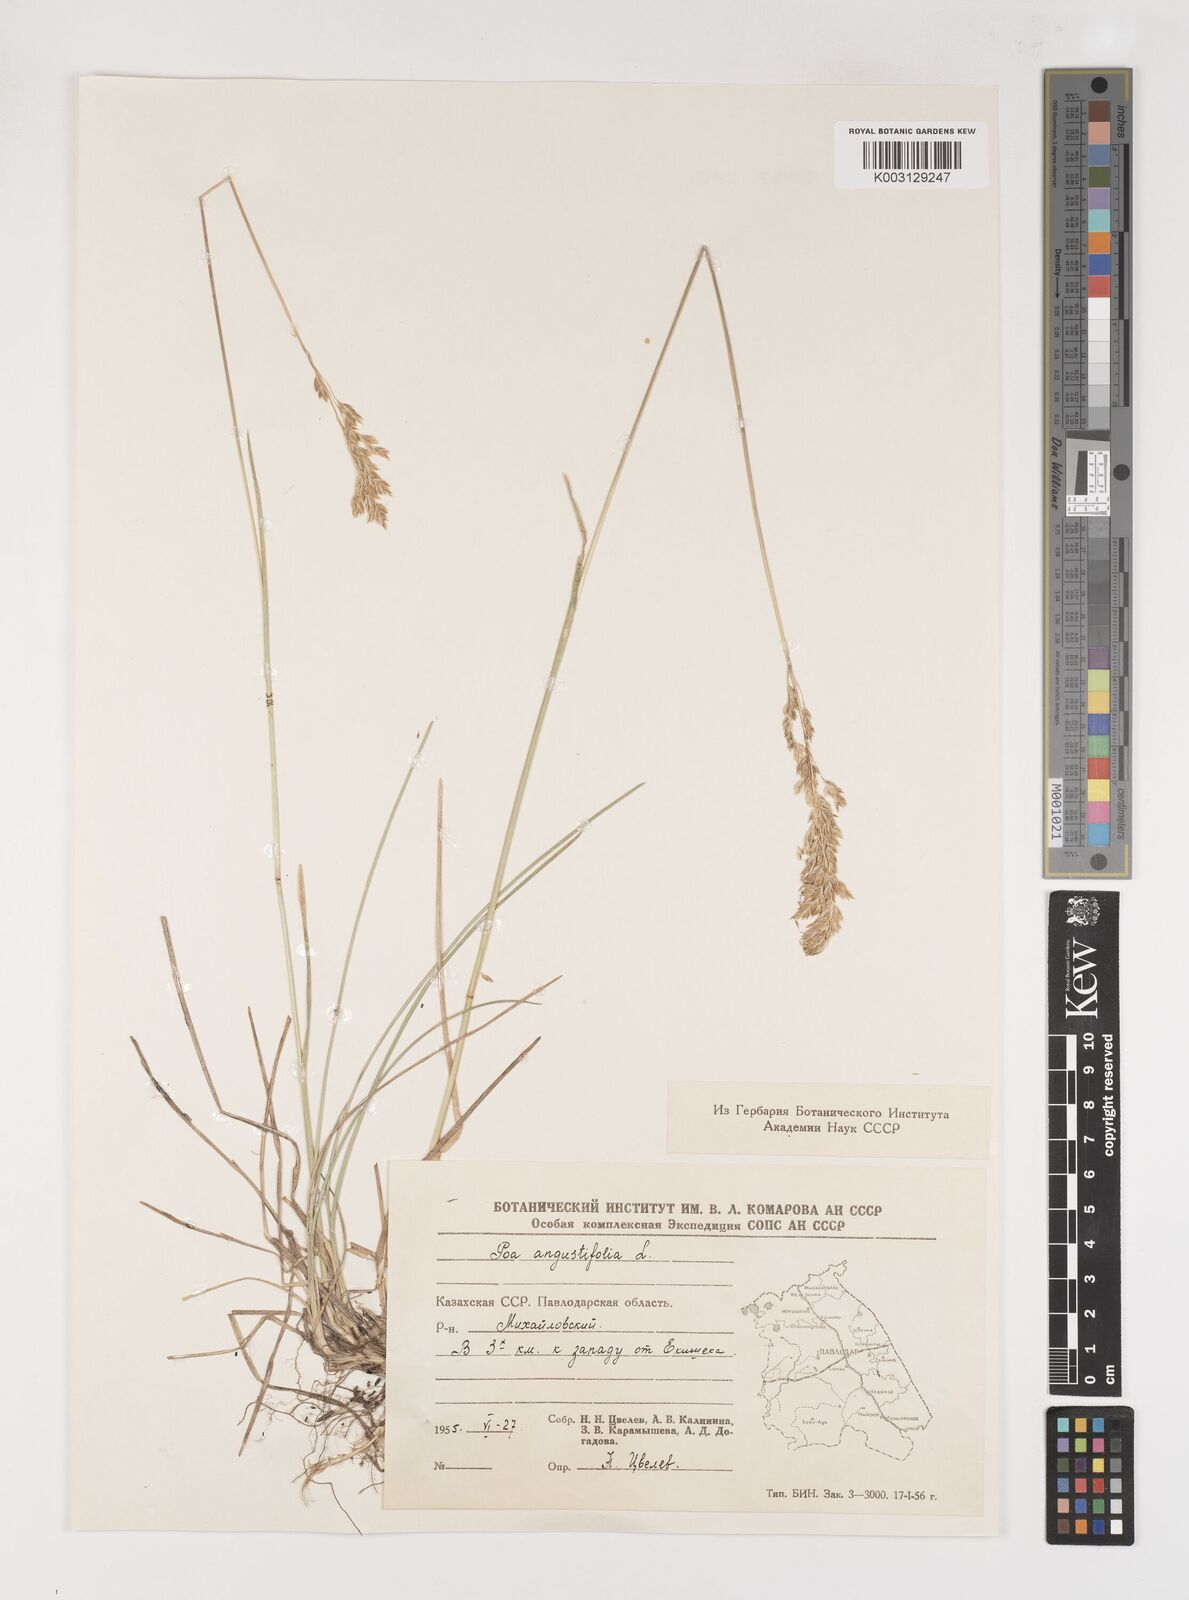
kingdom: Plantae
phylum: Tracheophyta
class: Liliopsida
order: Poales
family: Poaceae
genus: Poa
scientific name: Poa angustifolia
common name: Narrow-leaved meadow-grass
